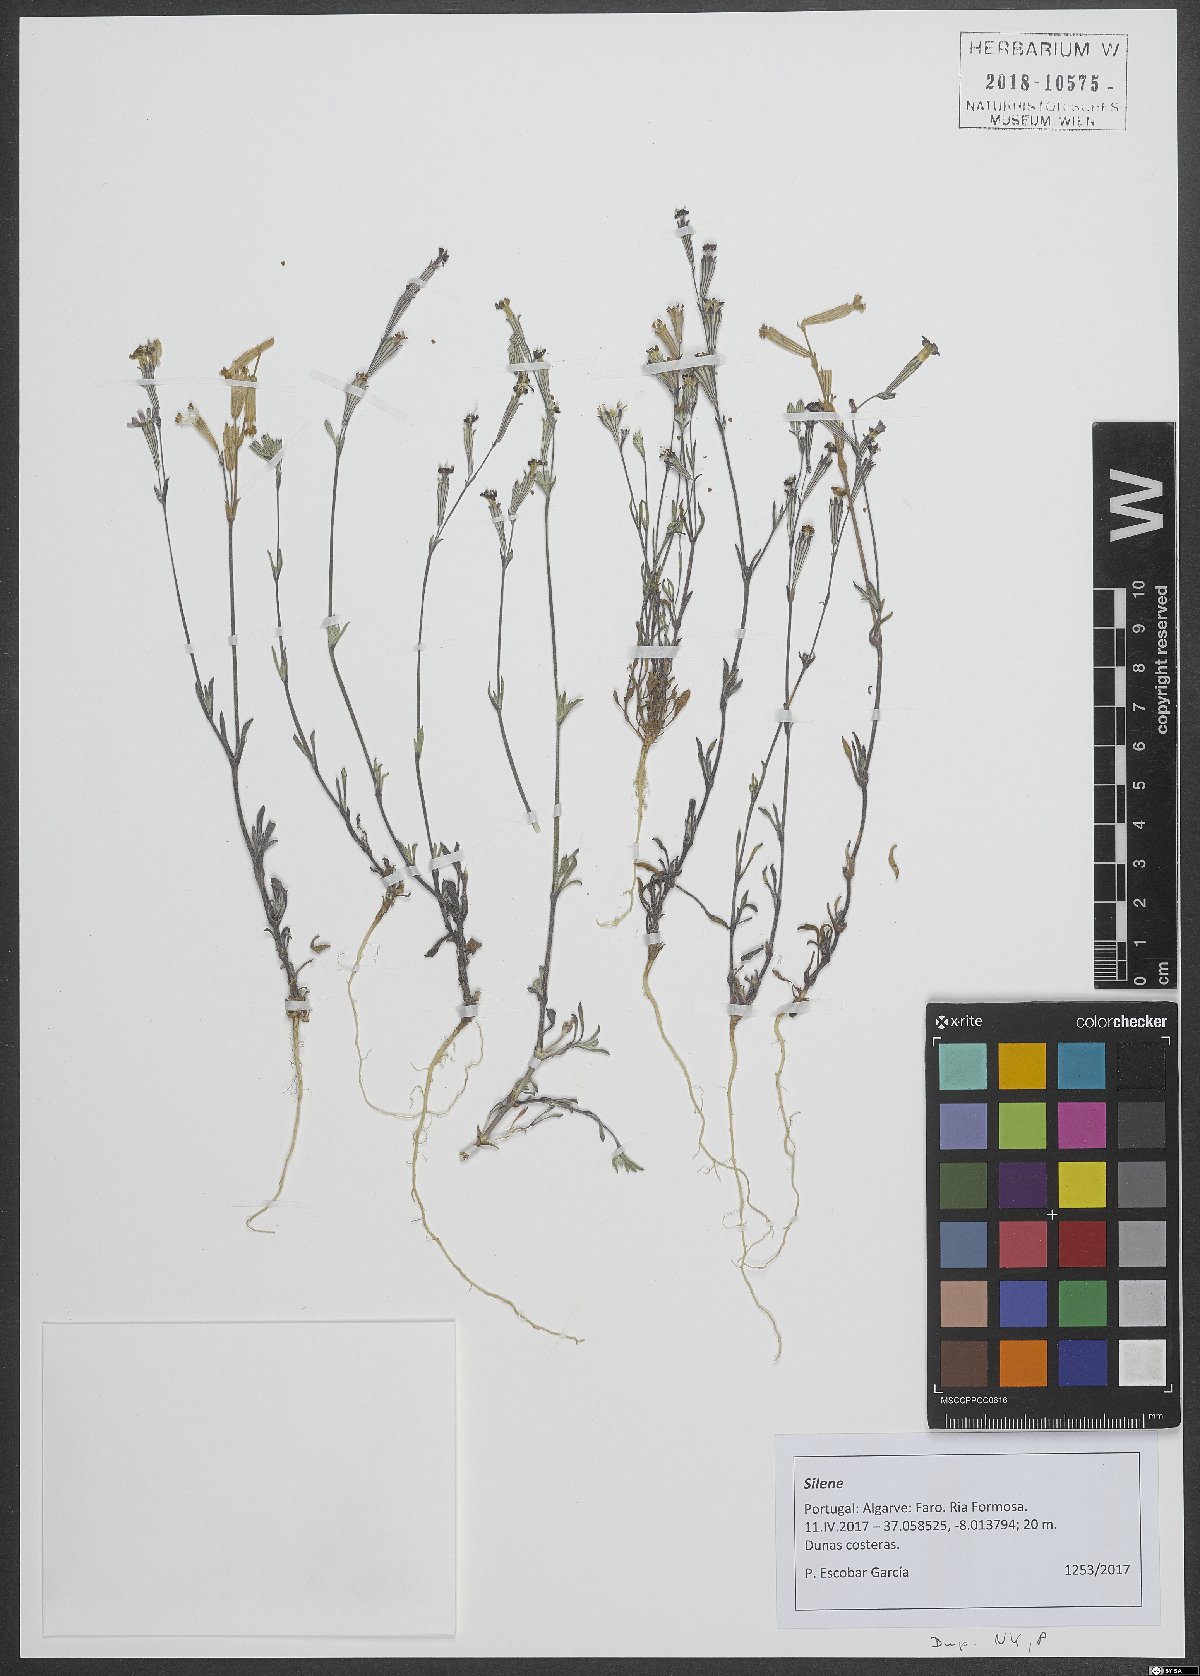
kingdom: Plantae
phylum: Tracheophyta
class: Magnoliopsida
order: Caryophyllales
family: Caryophyllaceae
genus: Silene
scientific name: Silene
